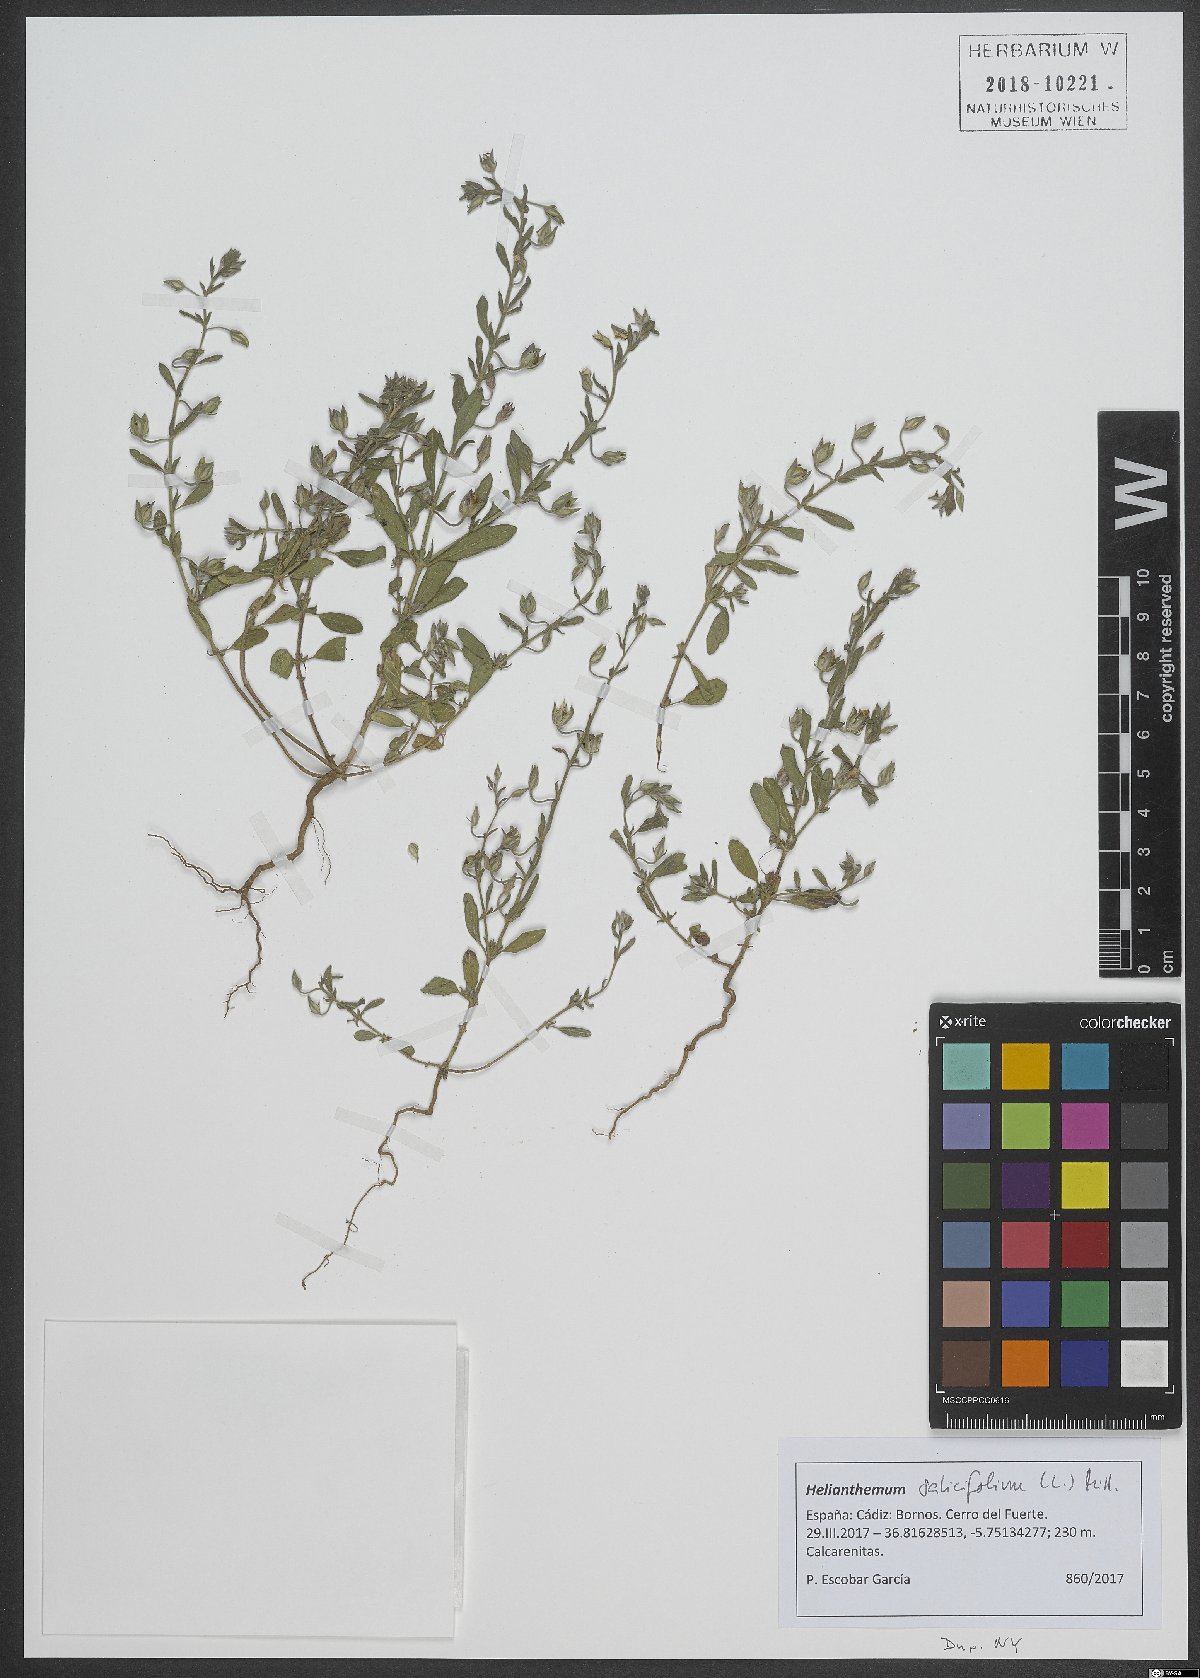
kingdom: Plantae
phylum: Tracheophyta
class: Magnoliopsida
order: Malvales
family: Cistaceae
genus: Helianthemum
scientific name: Helianthemum salicifolium
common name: Willowleaf frostweed
